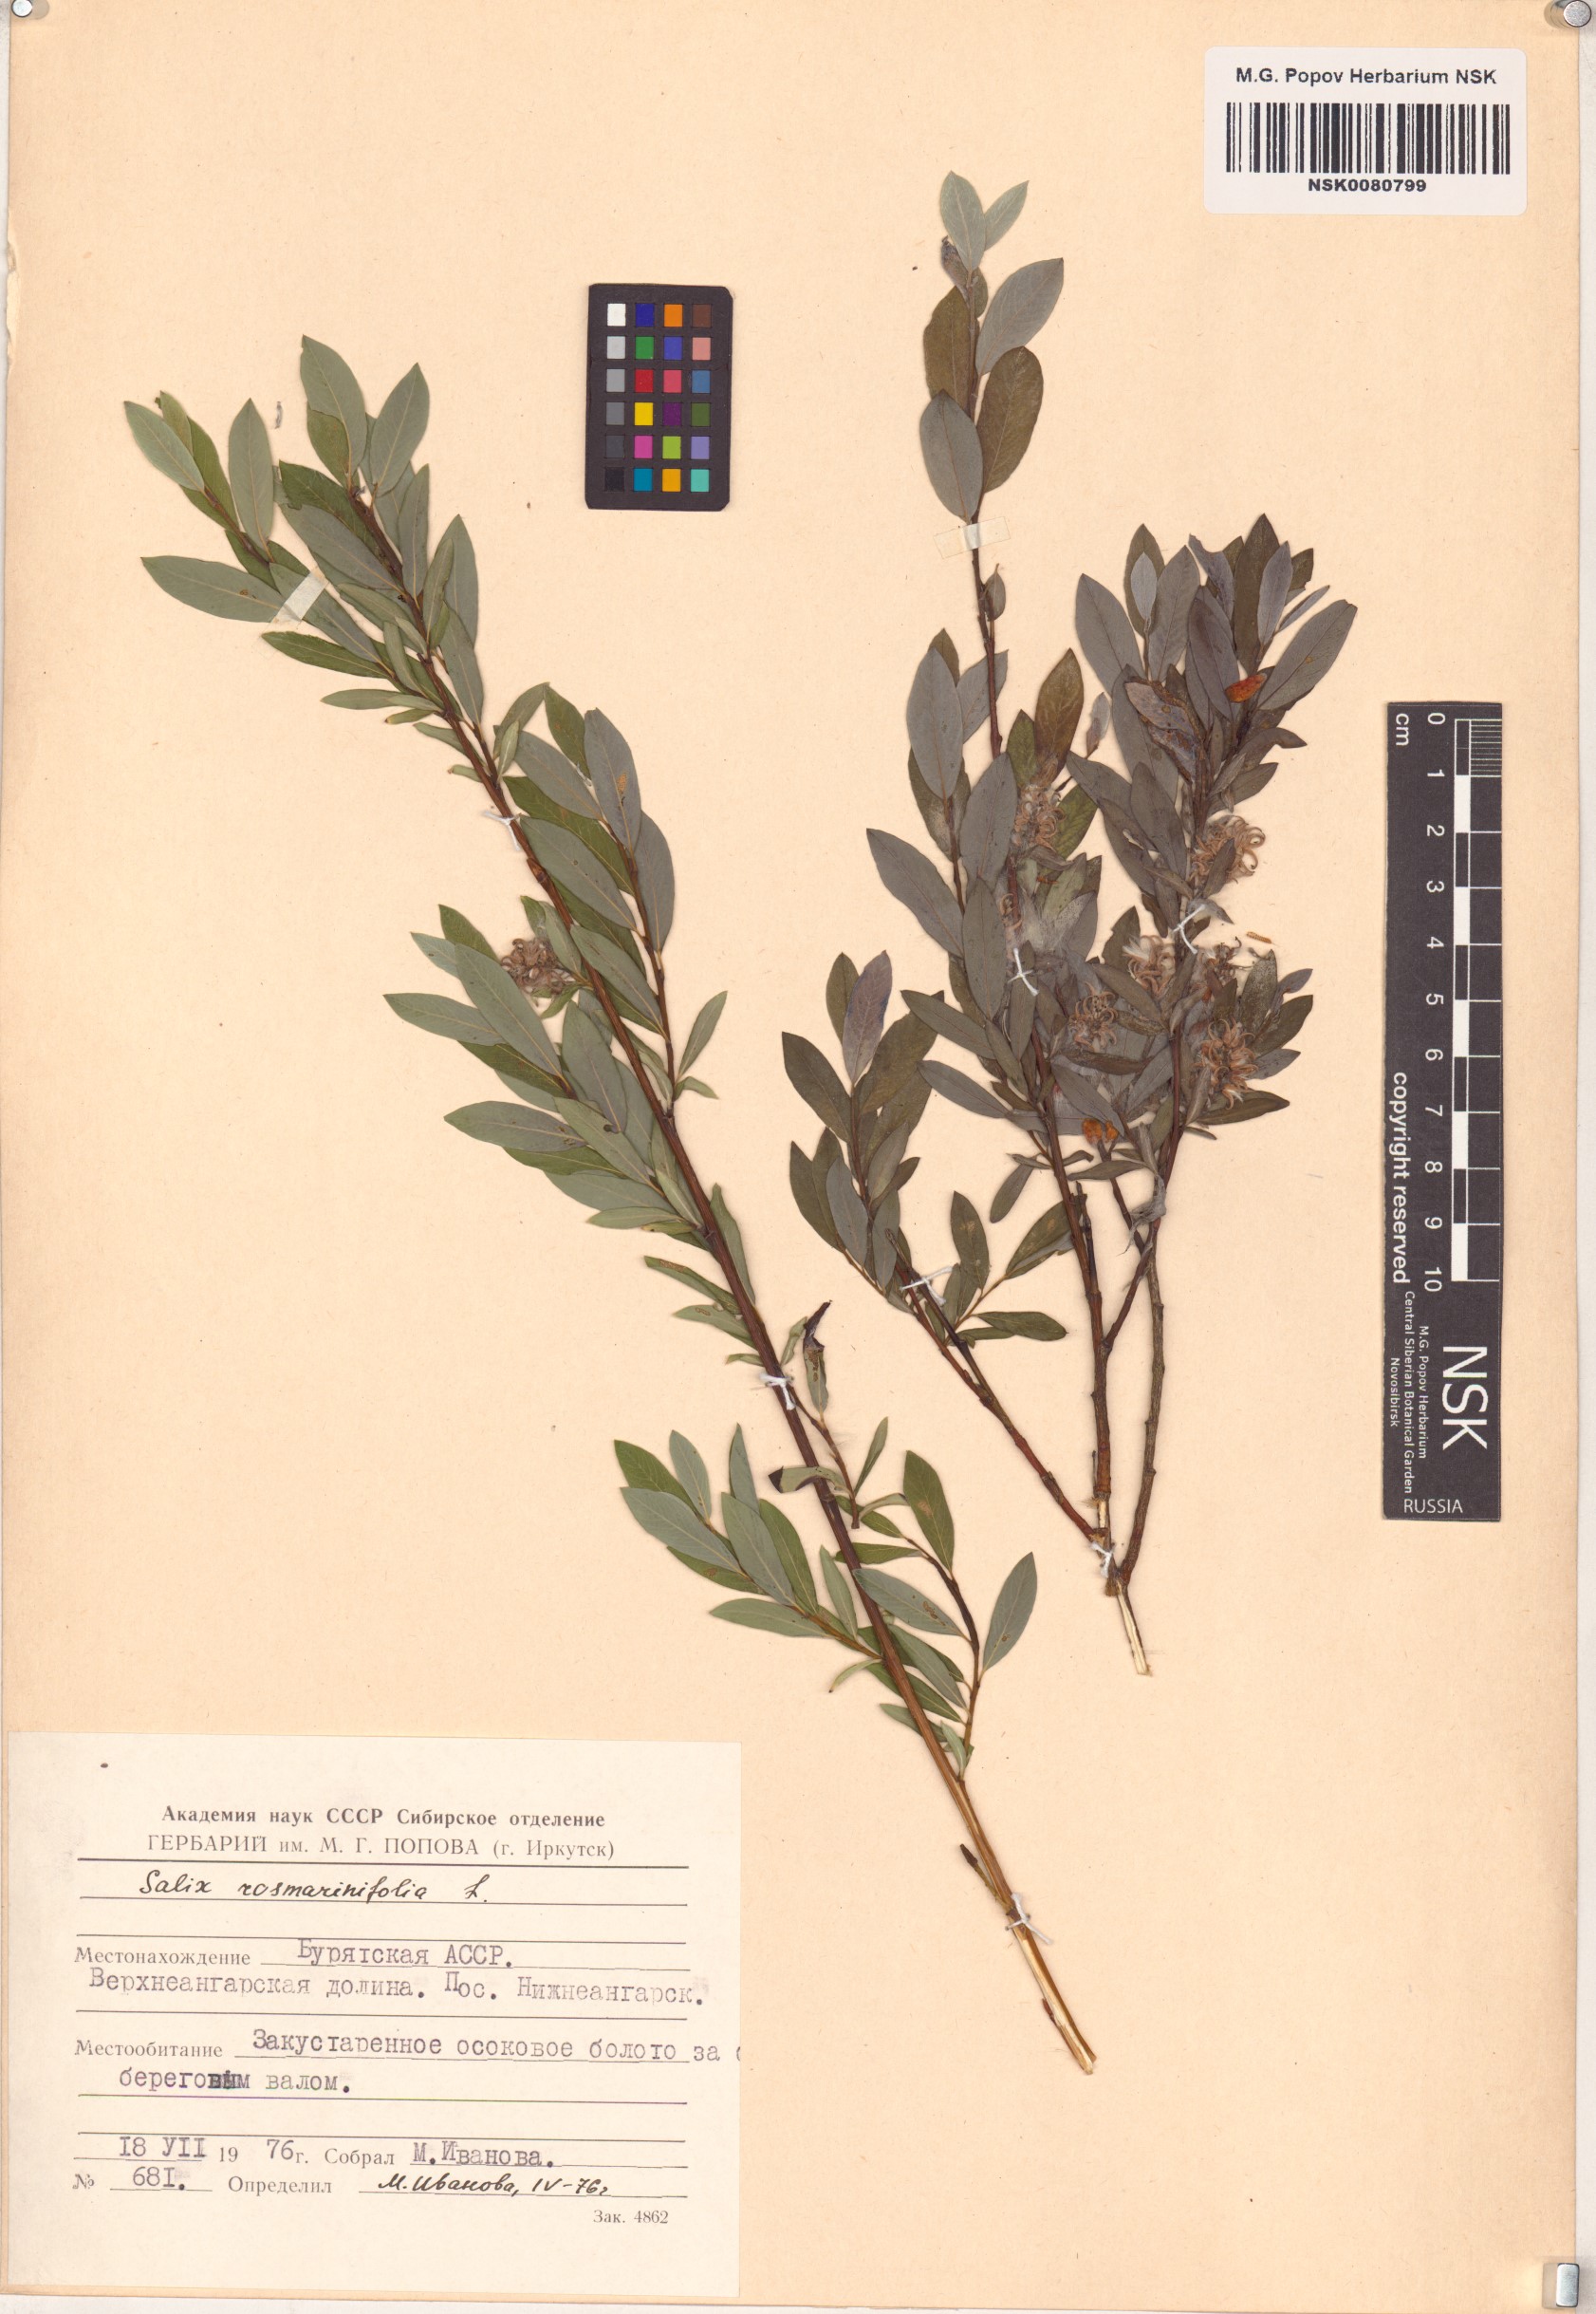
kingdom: Plantae
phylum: Tracheophyta
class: Magnoliopsida
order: Malpighiales
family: Salicaceae
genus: Salix
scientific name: Salix rosmarinifolia
